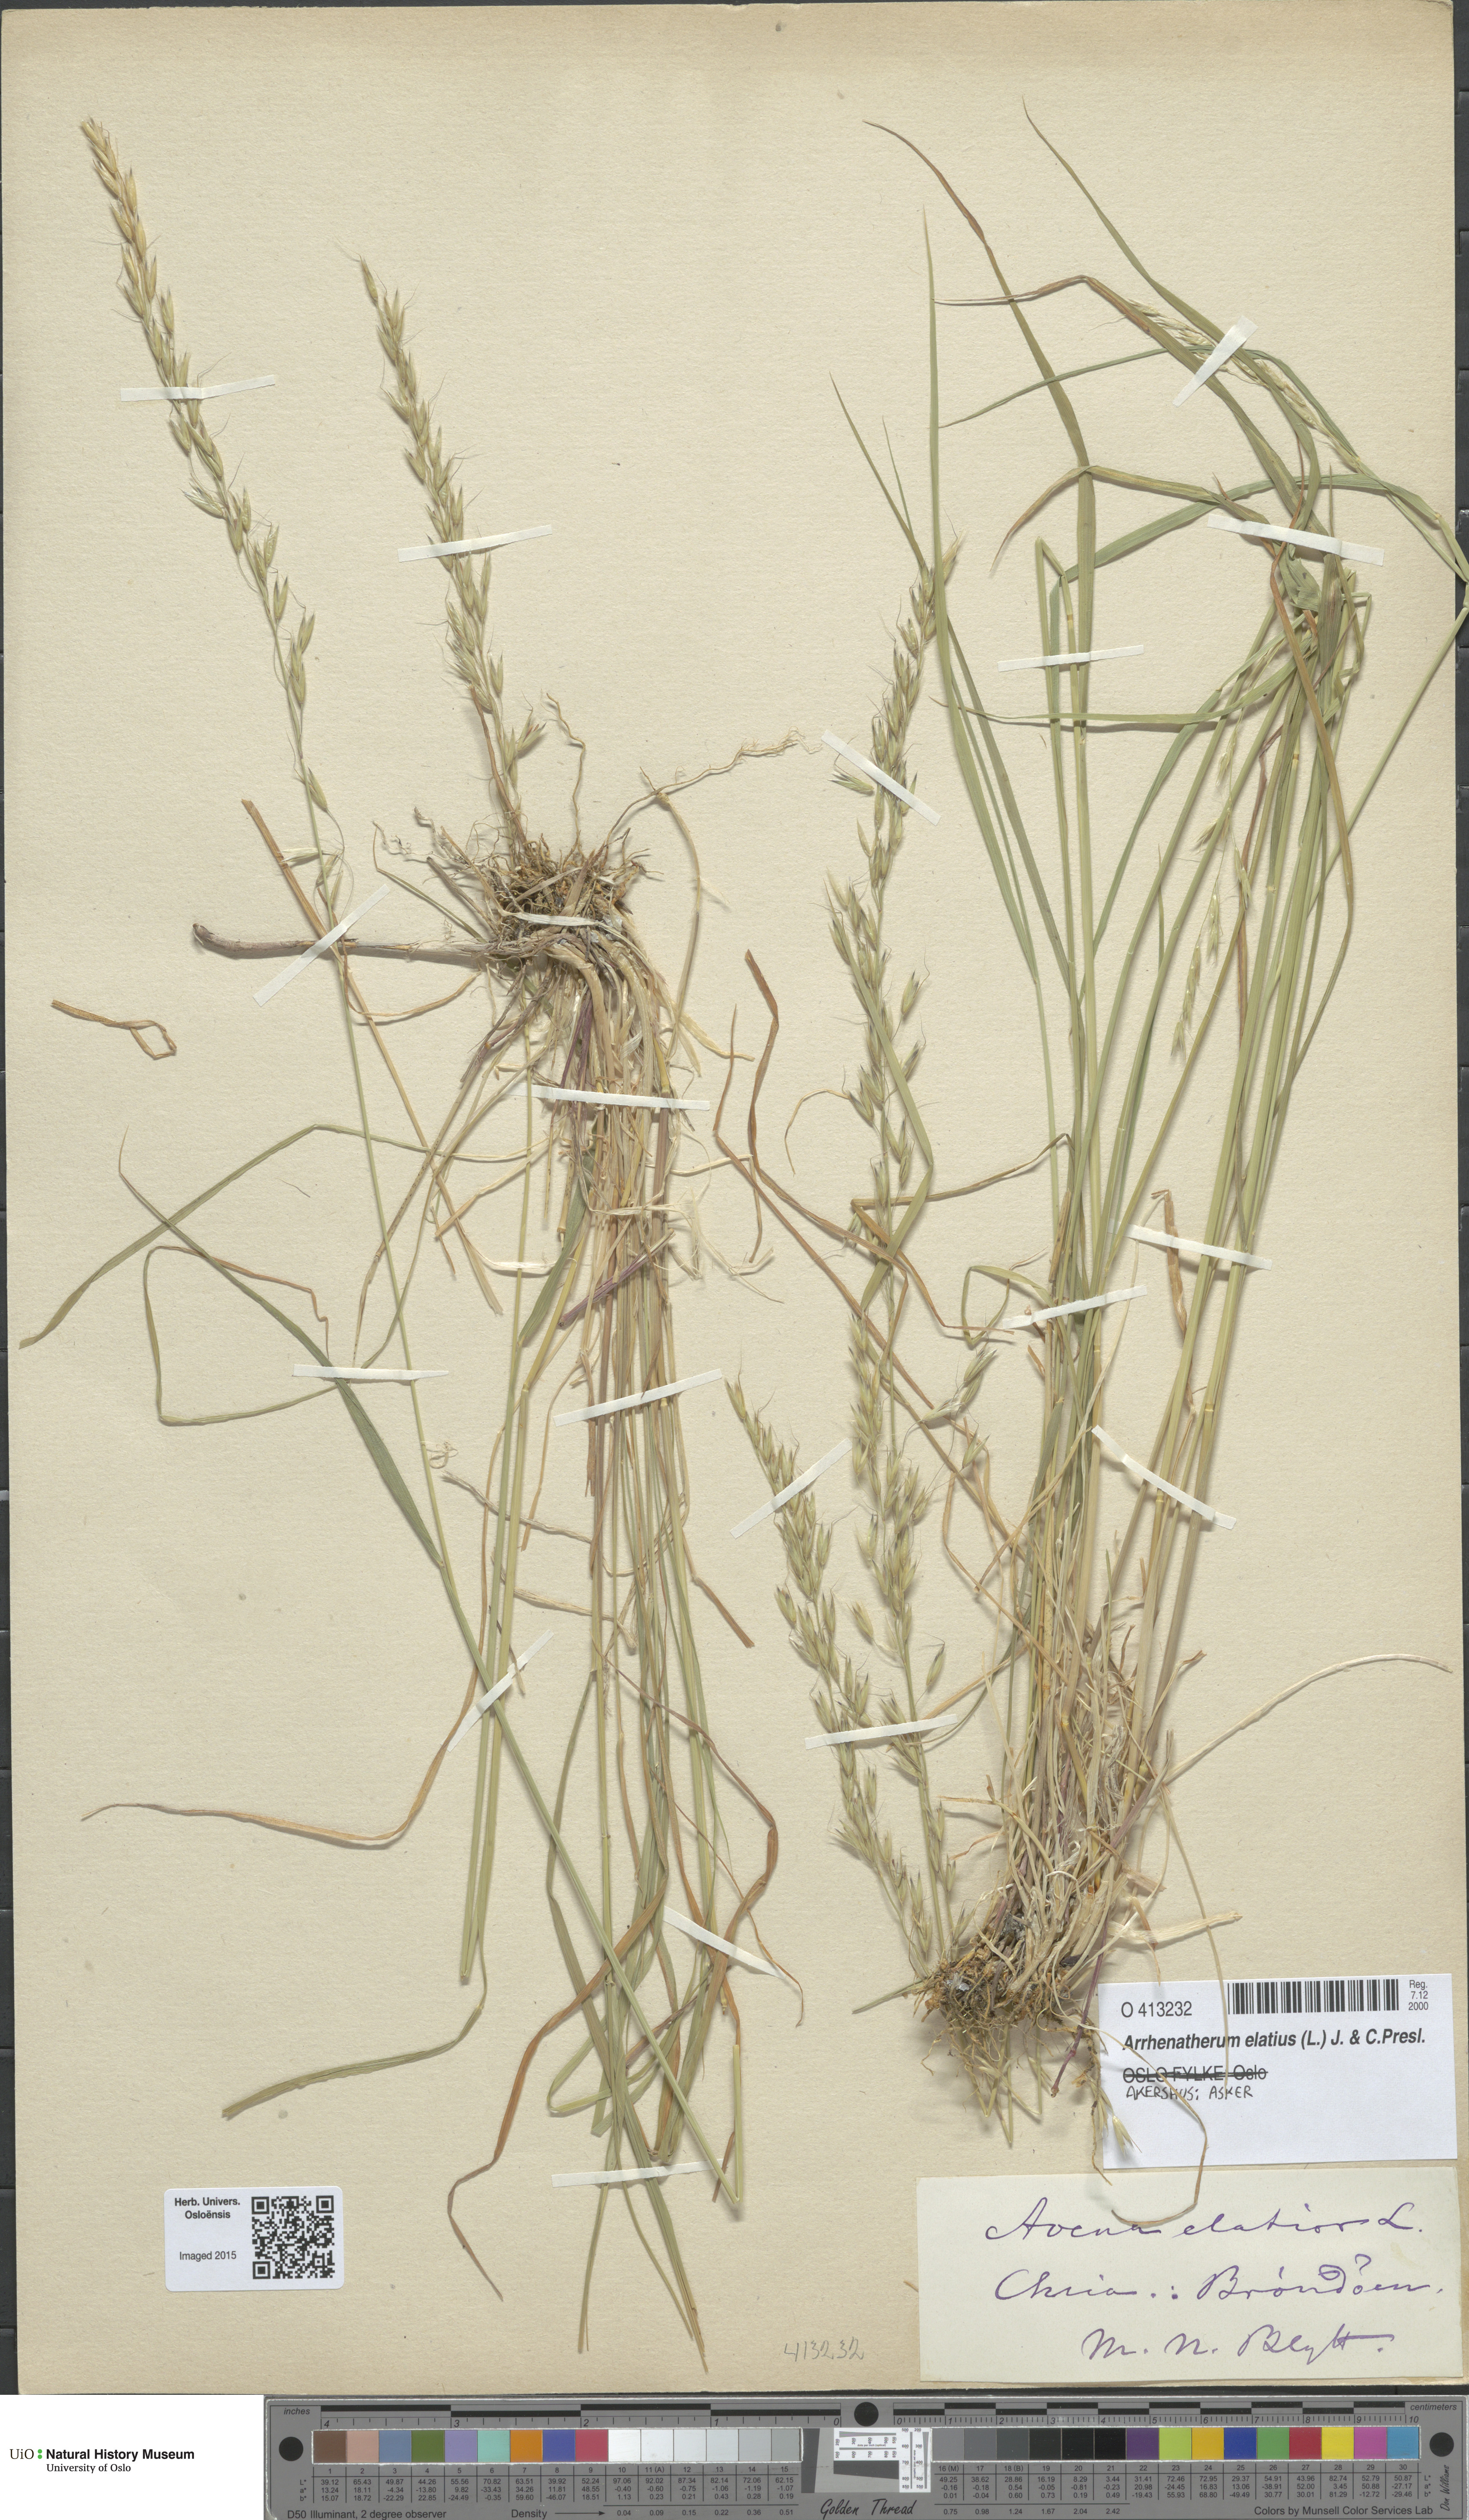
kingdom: Plantae
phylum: Tracheophyta
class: Liliopsida
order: Poales
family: Poaceae
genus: Arrhenatherum
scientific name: Arrhenatherum elatius
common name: Tall oatgrass
